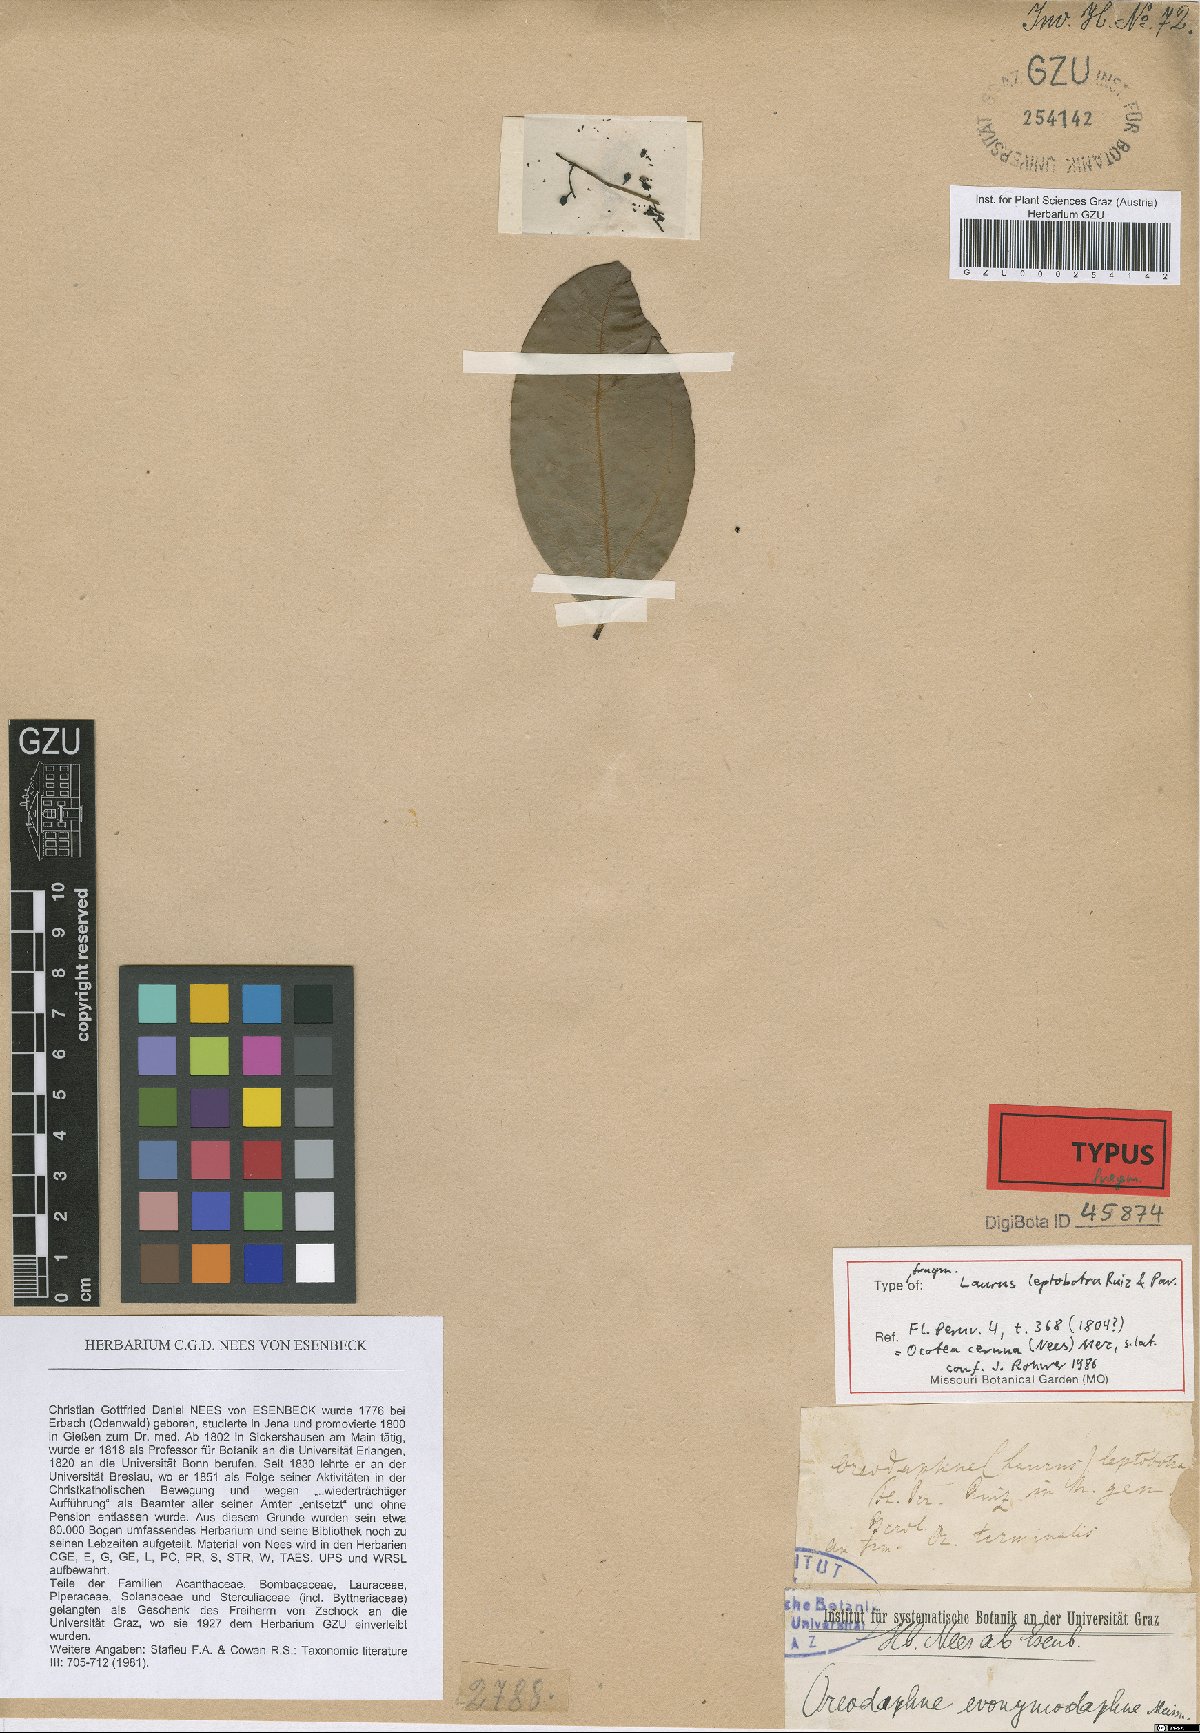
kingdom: Plantae
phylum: Tracheophyta
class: Magnoliopsida
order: Laurales
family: Lauraceae
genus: Ocotea
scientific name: Ocotea leptobotra
